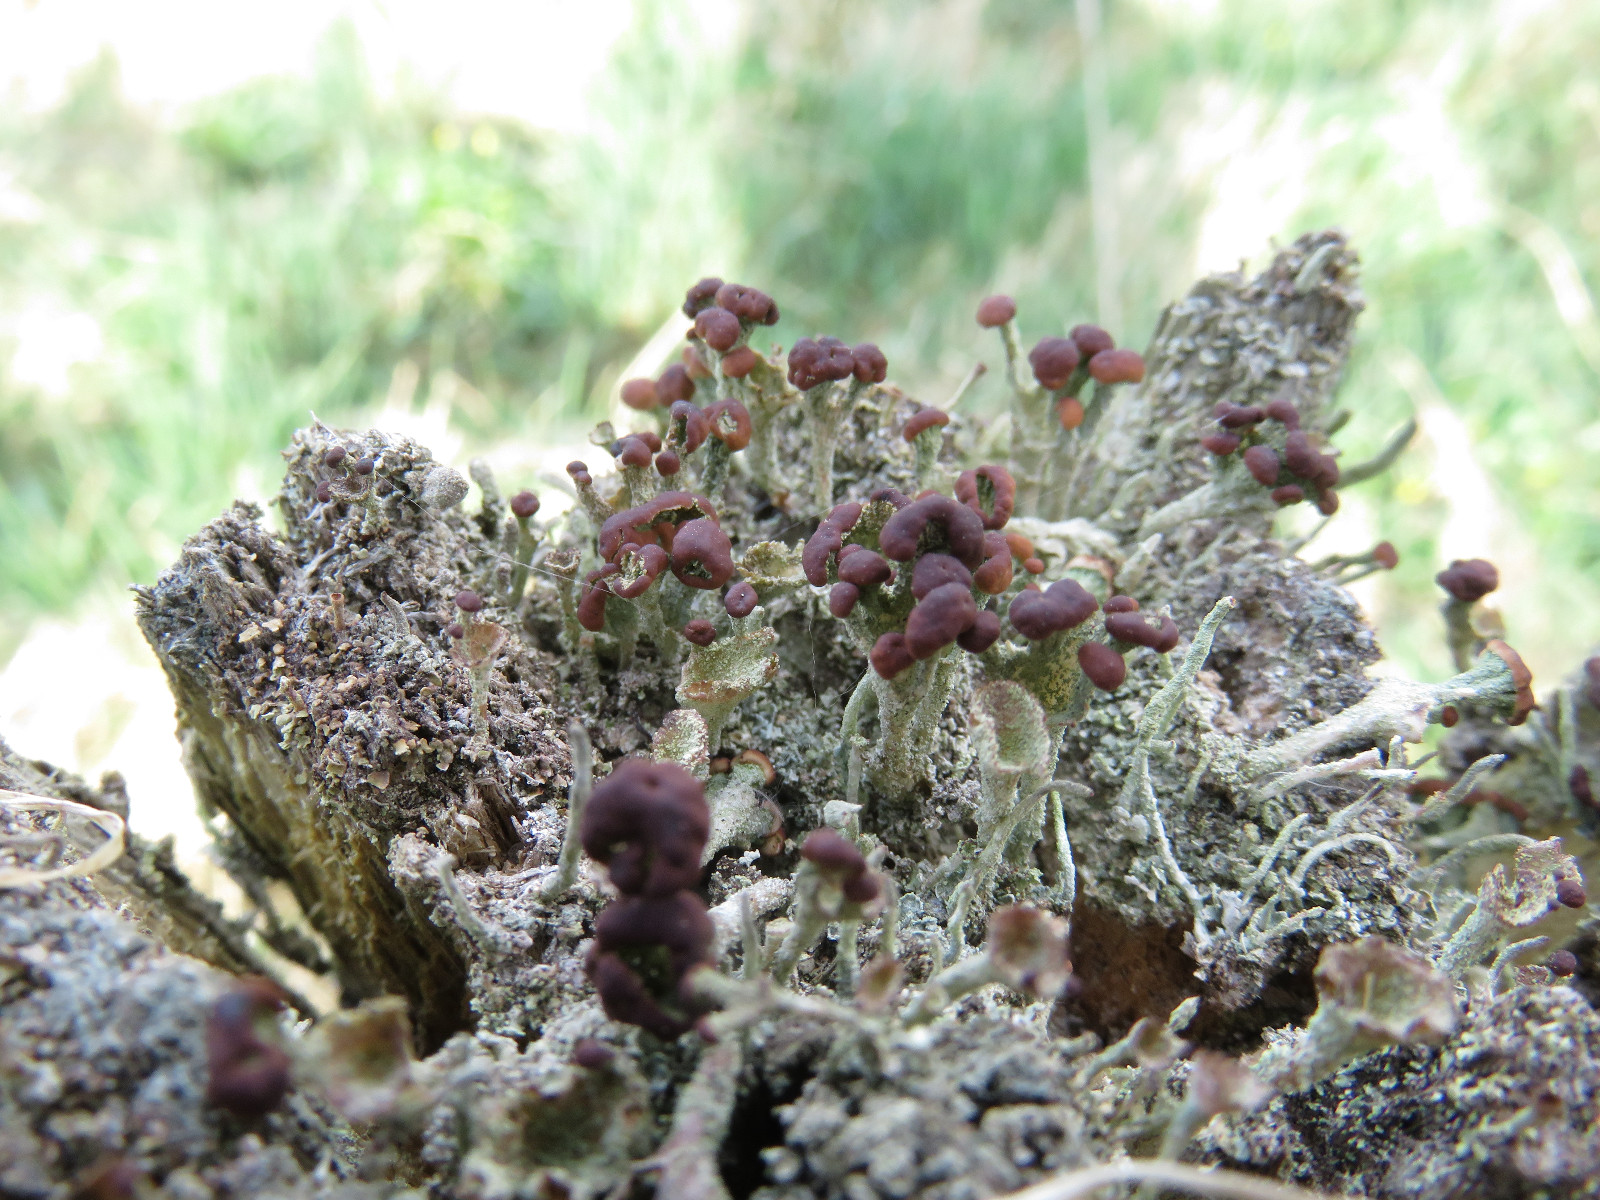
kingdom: Fungi
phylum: Ascomycota
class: Lecanoromycetes
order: Lecanorales
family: Cladoniaceae
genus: Cladonia
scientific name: Cladonia
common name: brungrøn bægerlav
